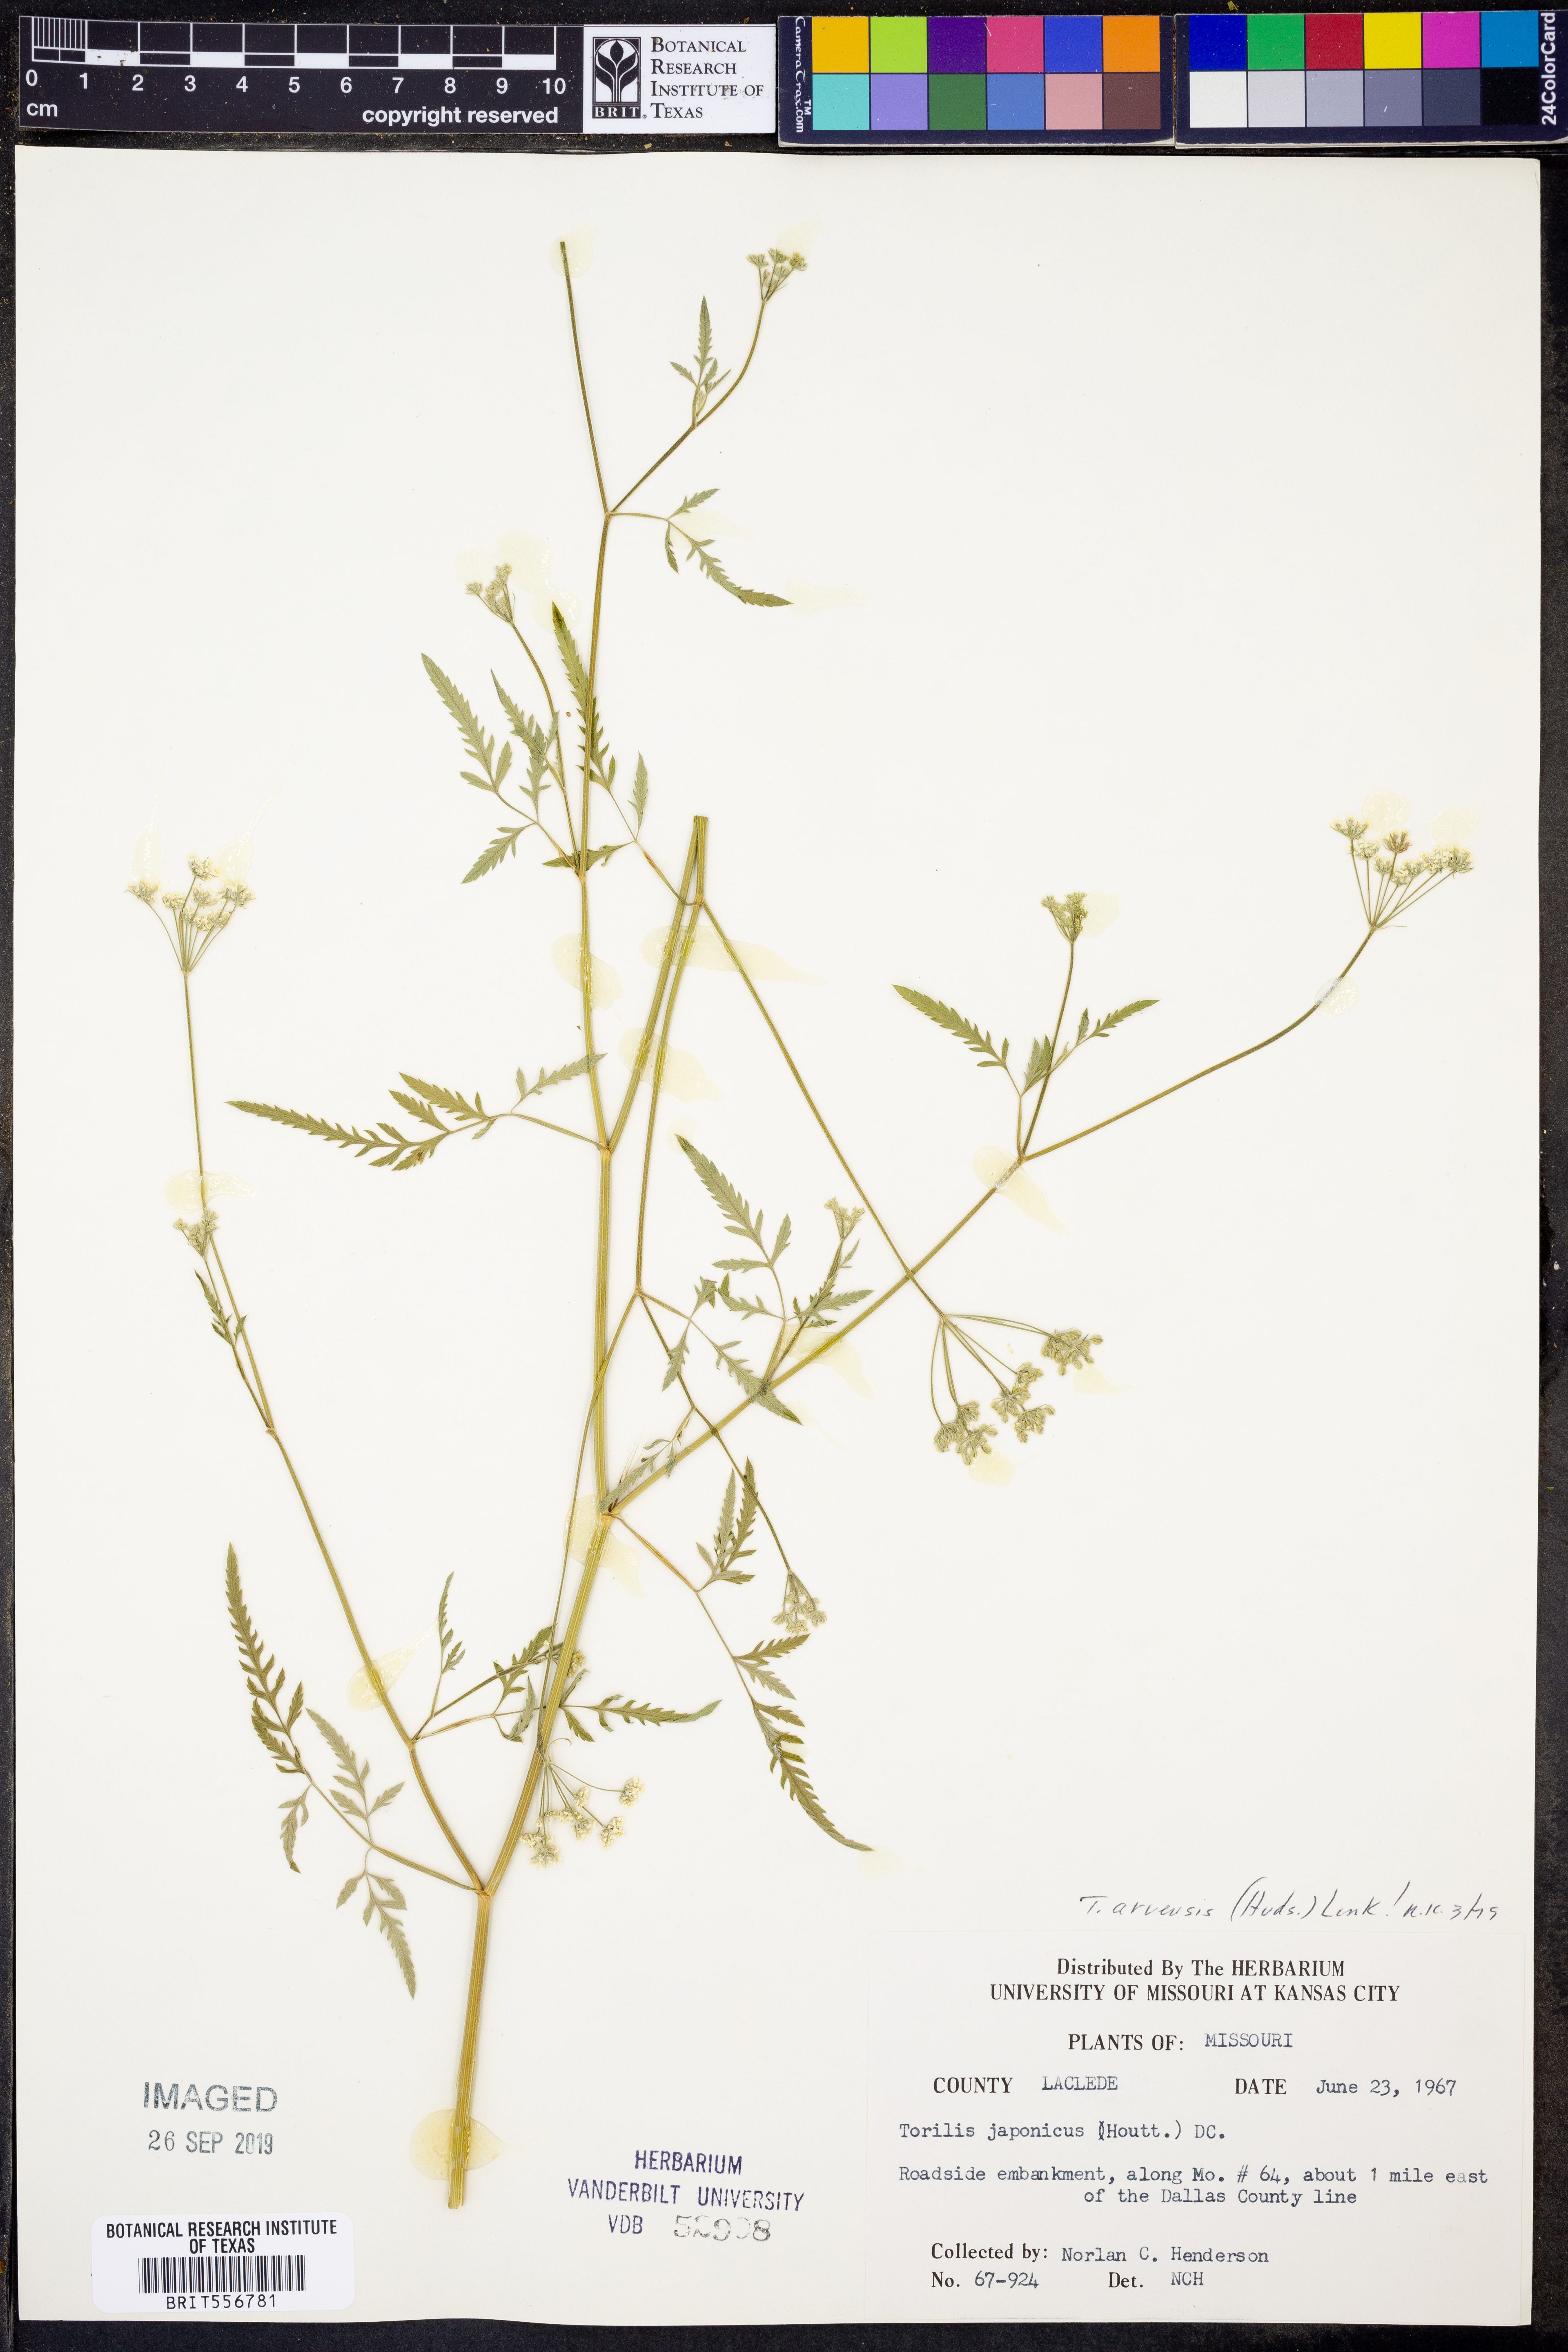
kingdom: Plantae
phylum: Tracheophyta
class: Magnoliopsida
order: Apiales
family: Apiaceae
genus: Torilis
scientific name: Torilis arvensis
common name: Spreading hedge-parsley
